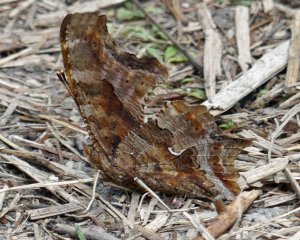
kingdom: Animalia
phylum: Arthropoda
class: Insecta
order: Lepidoptera
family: Nymphalidae
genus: Polygonia
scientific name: Polygonia comma
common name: Eastern Comma
